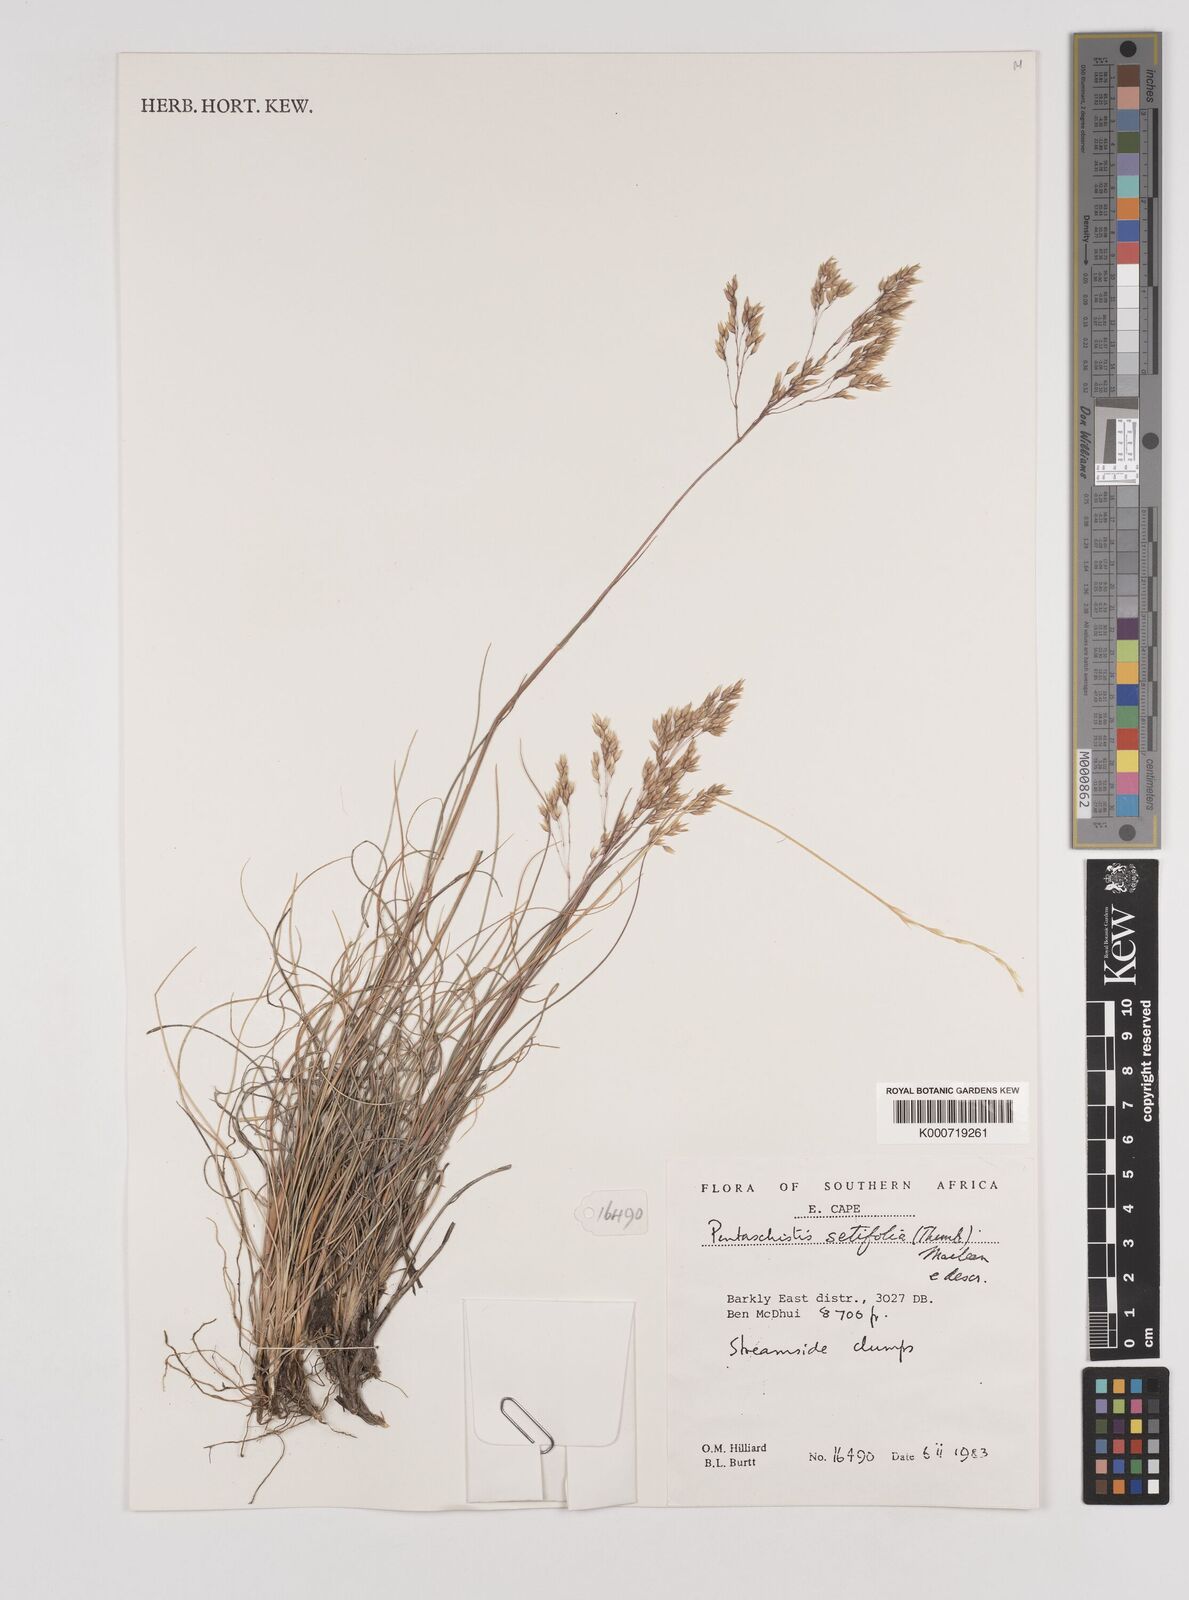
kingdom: Plantae
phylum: Tracheophyta
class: Liliopsida
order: Poales
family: Poaceae
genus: Pentameris
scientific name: Pentameris setifolia
